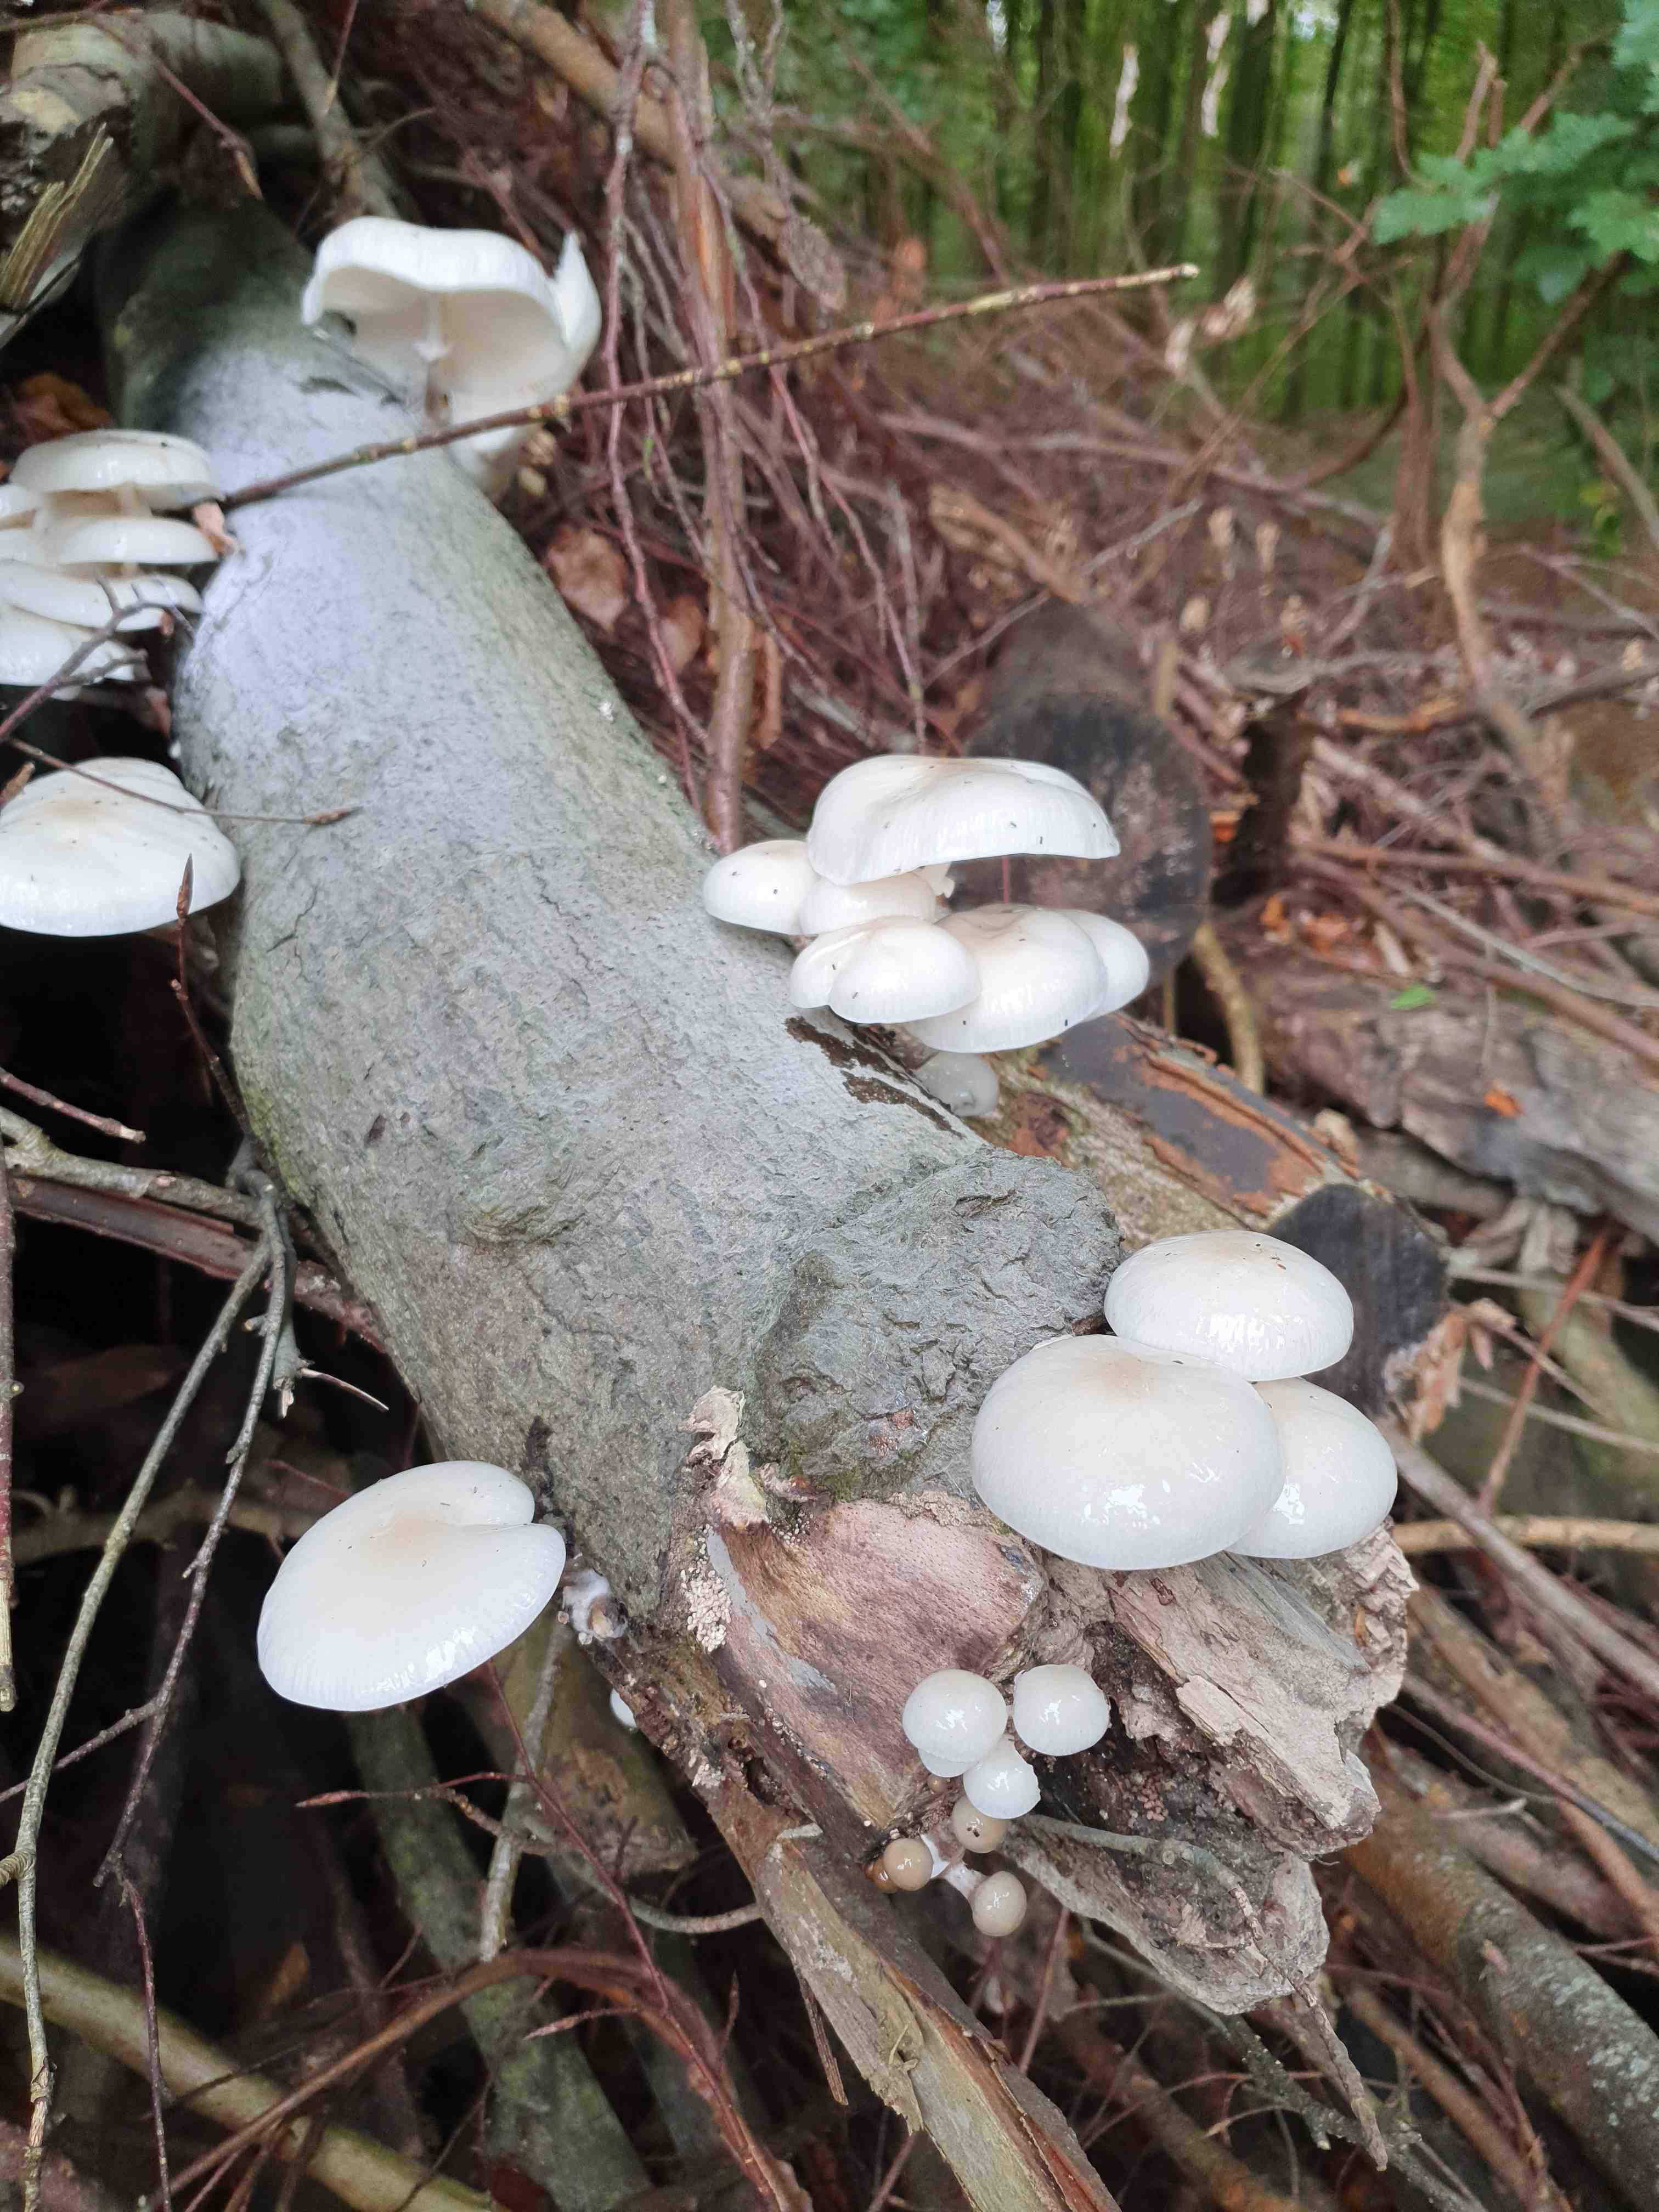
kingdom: Fungi
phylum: Basidiomycota
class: Agaricomycetes
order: Agaricales
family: Physalacriaceae
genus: Mucidula
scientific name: Mucidula mucida
